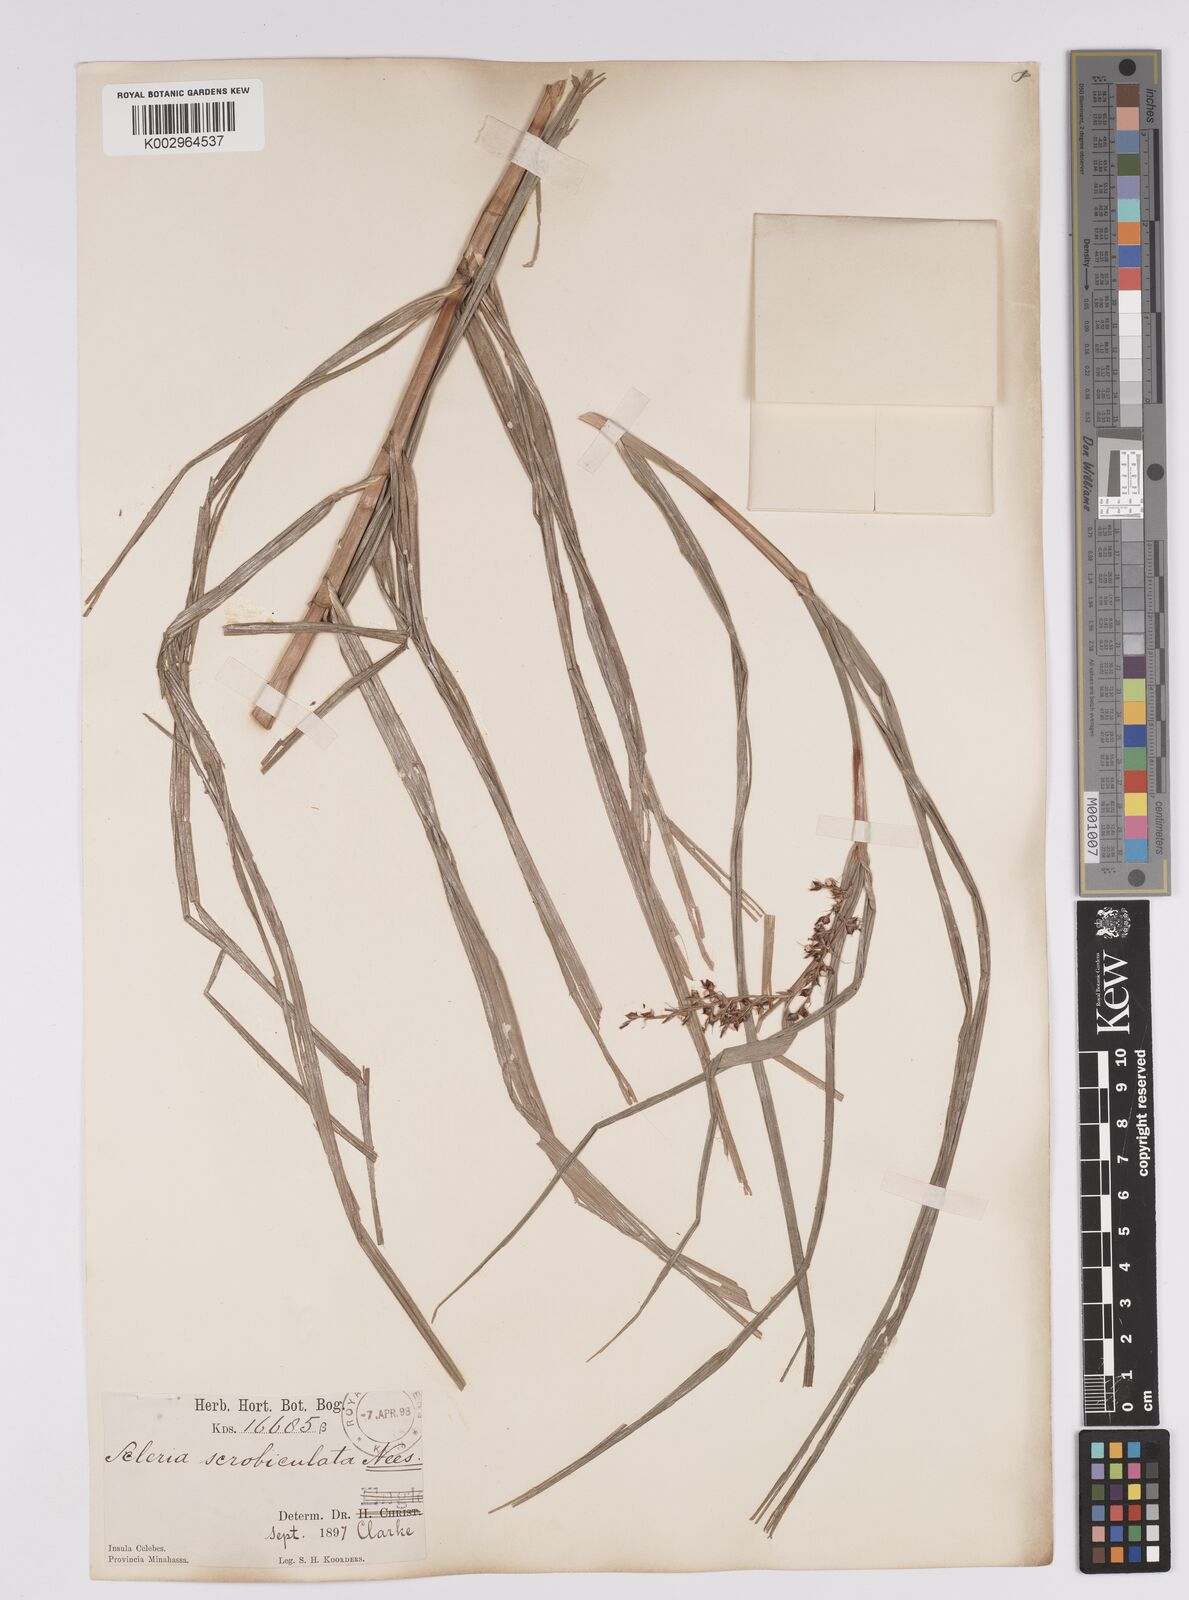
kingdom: Plantae
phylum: Tracheophyta
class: Liliopsida
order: Poales
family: Cyperaceae
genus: Scleria
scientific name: Scleria scrobiculata
